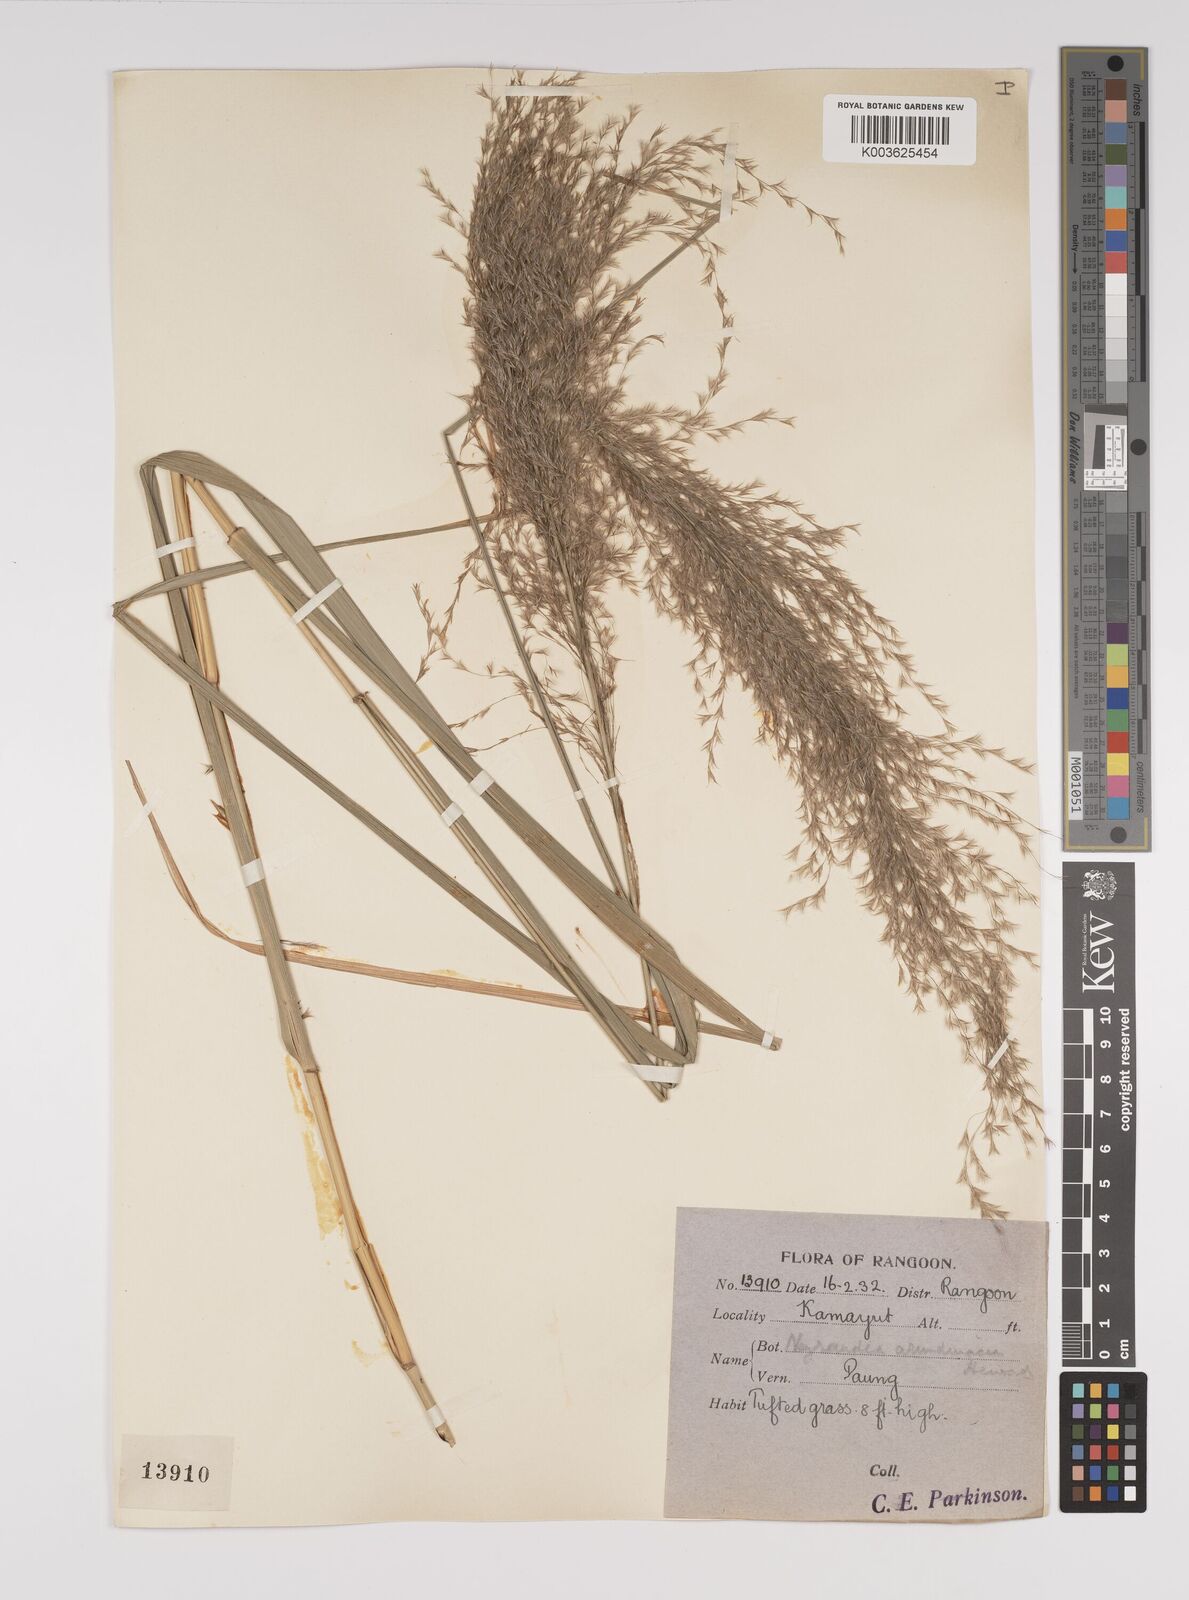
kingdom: Plantae
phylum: Tracheophyta
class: Liliopsida
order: Poales
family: Poaceae
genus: Neyraudia
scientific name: Neyraudia reynaudiana
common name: Silkreed
